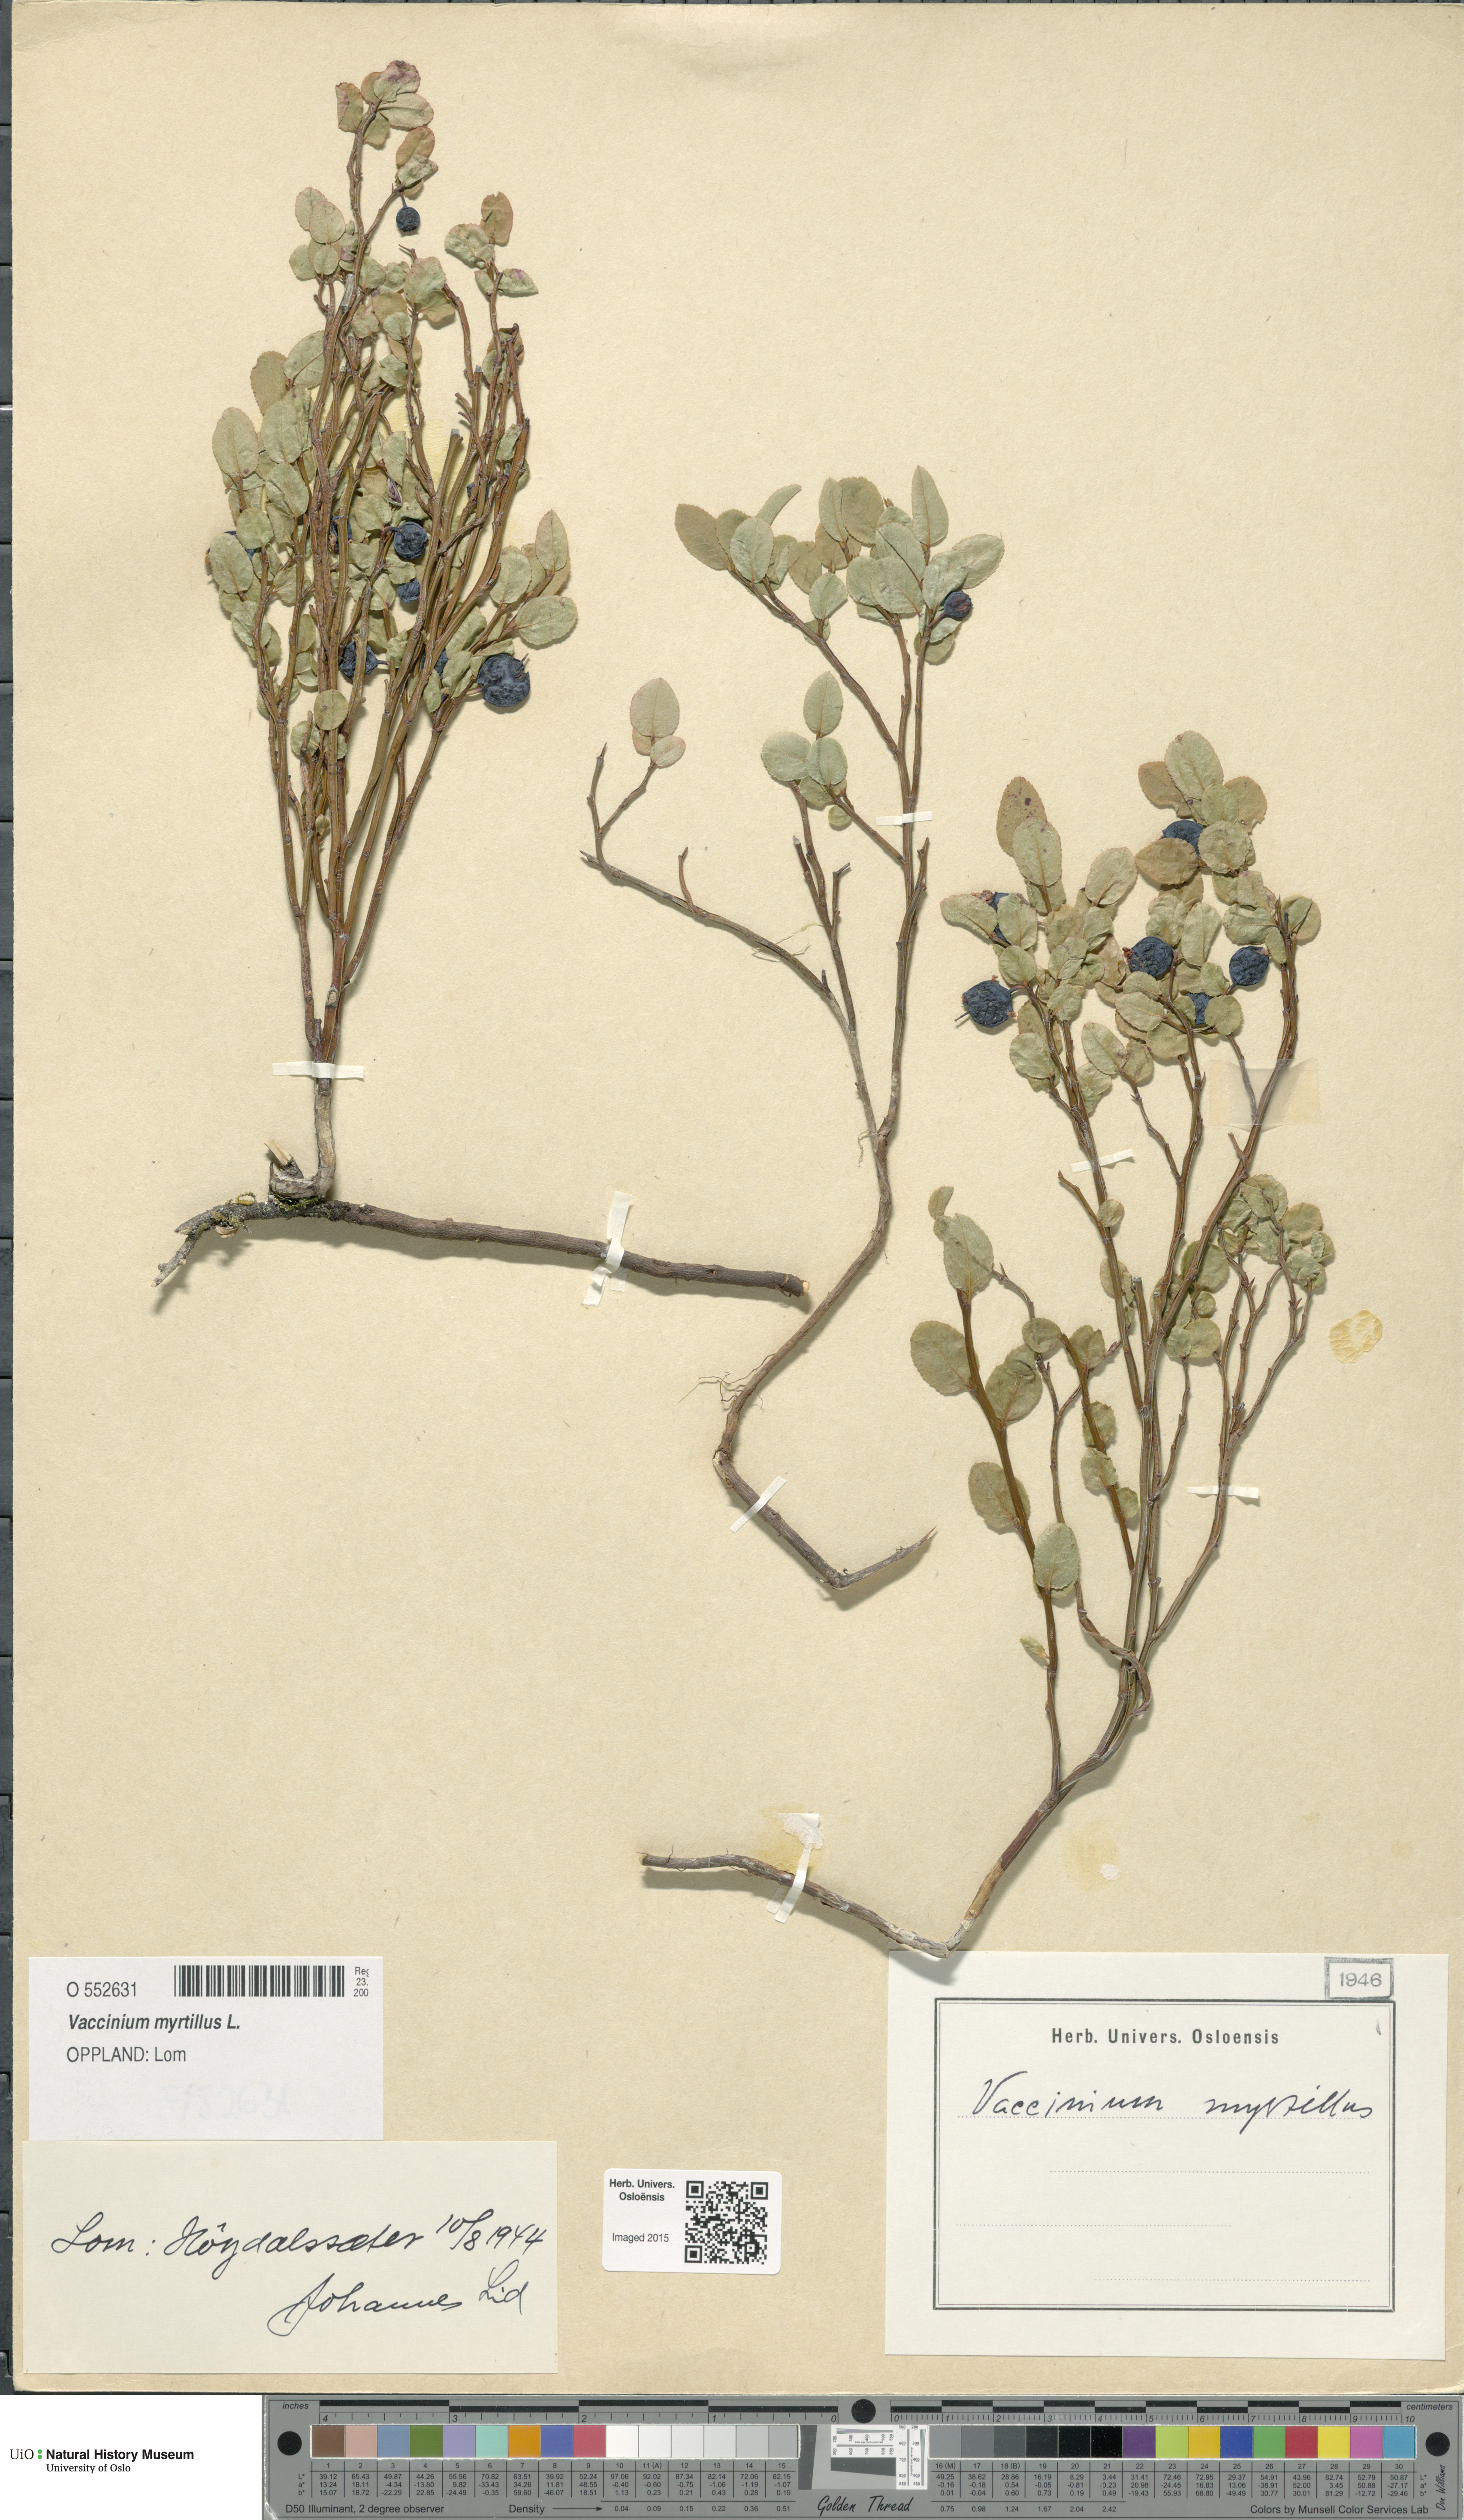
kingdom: Plantae
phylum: Tracheophyta
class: Magnoliopsida
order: Ericales
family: Ericaceae
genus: Vaccinium
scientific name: Vaccinium myrtillus
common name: Bilberry
